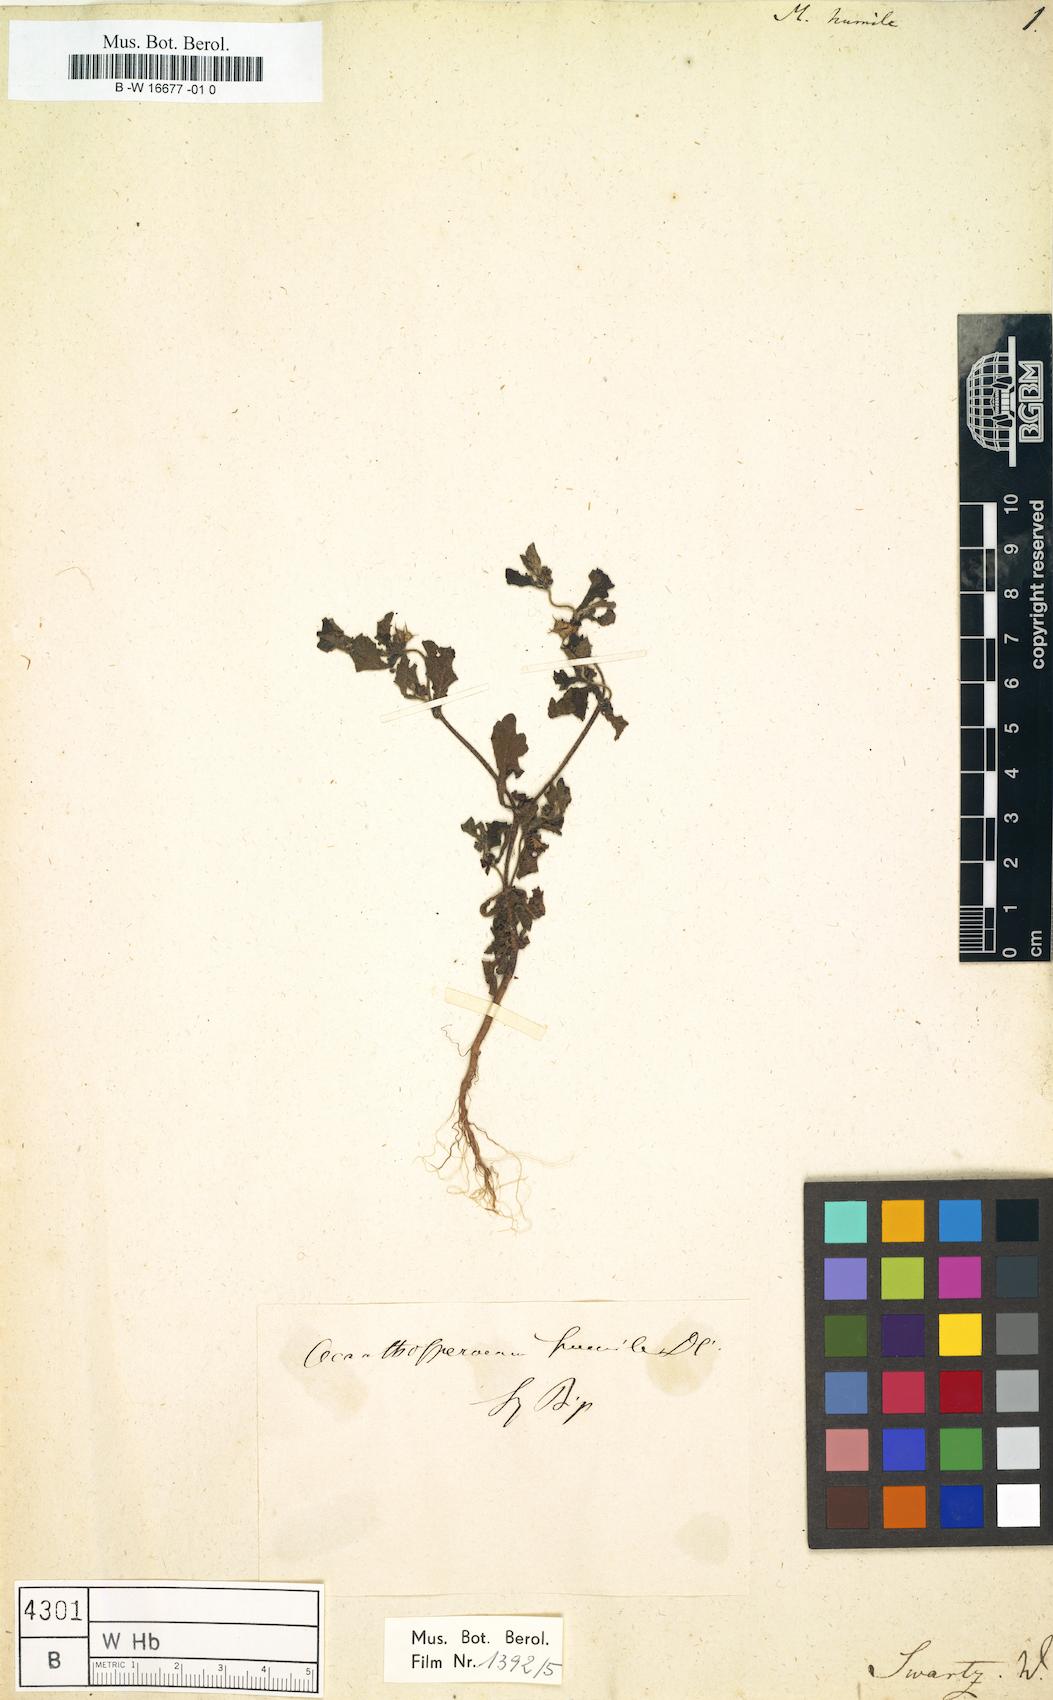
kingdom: Plantae
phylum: Tracheophyta
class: Magnoliopsida
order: Asterales
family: Asteraceae
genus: Acanthospermum
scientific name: Acanthospermum humile
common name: Low starbur
